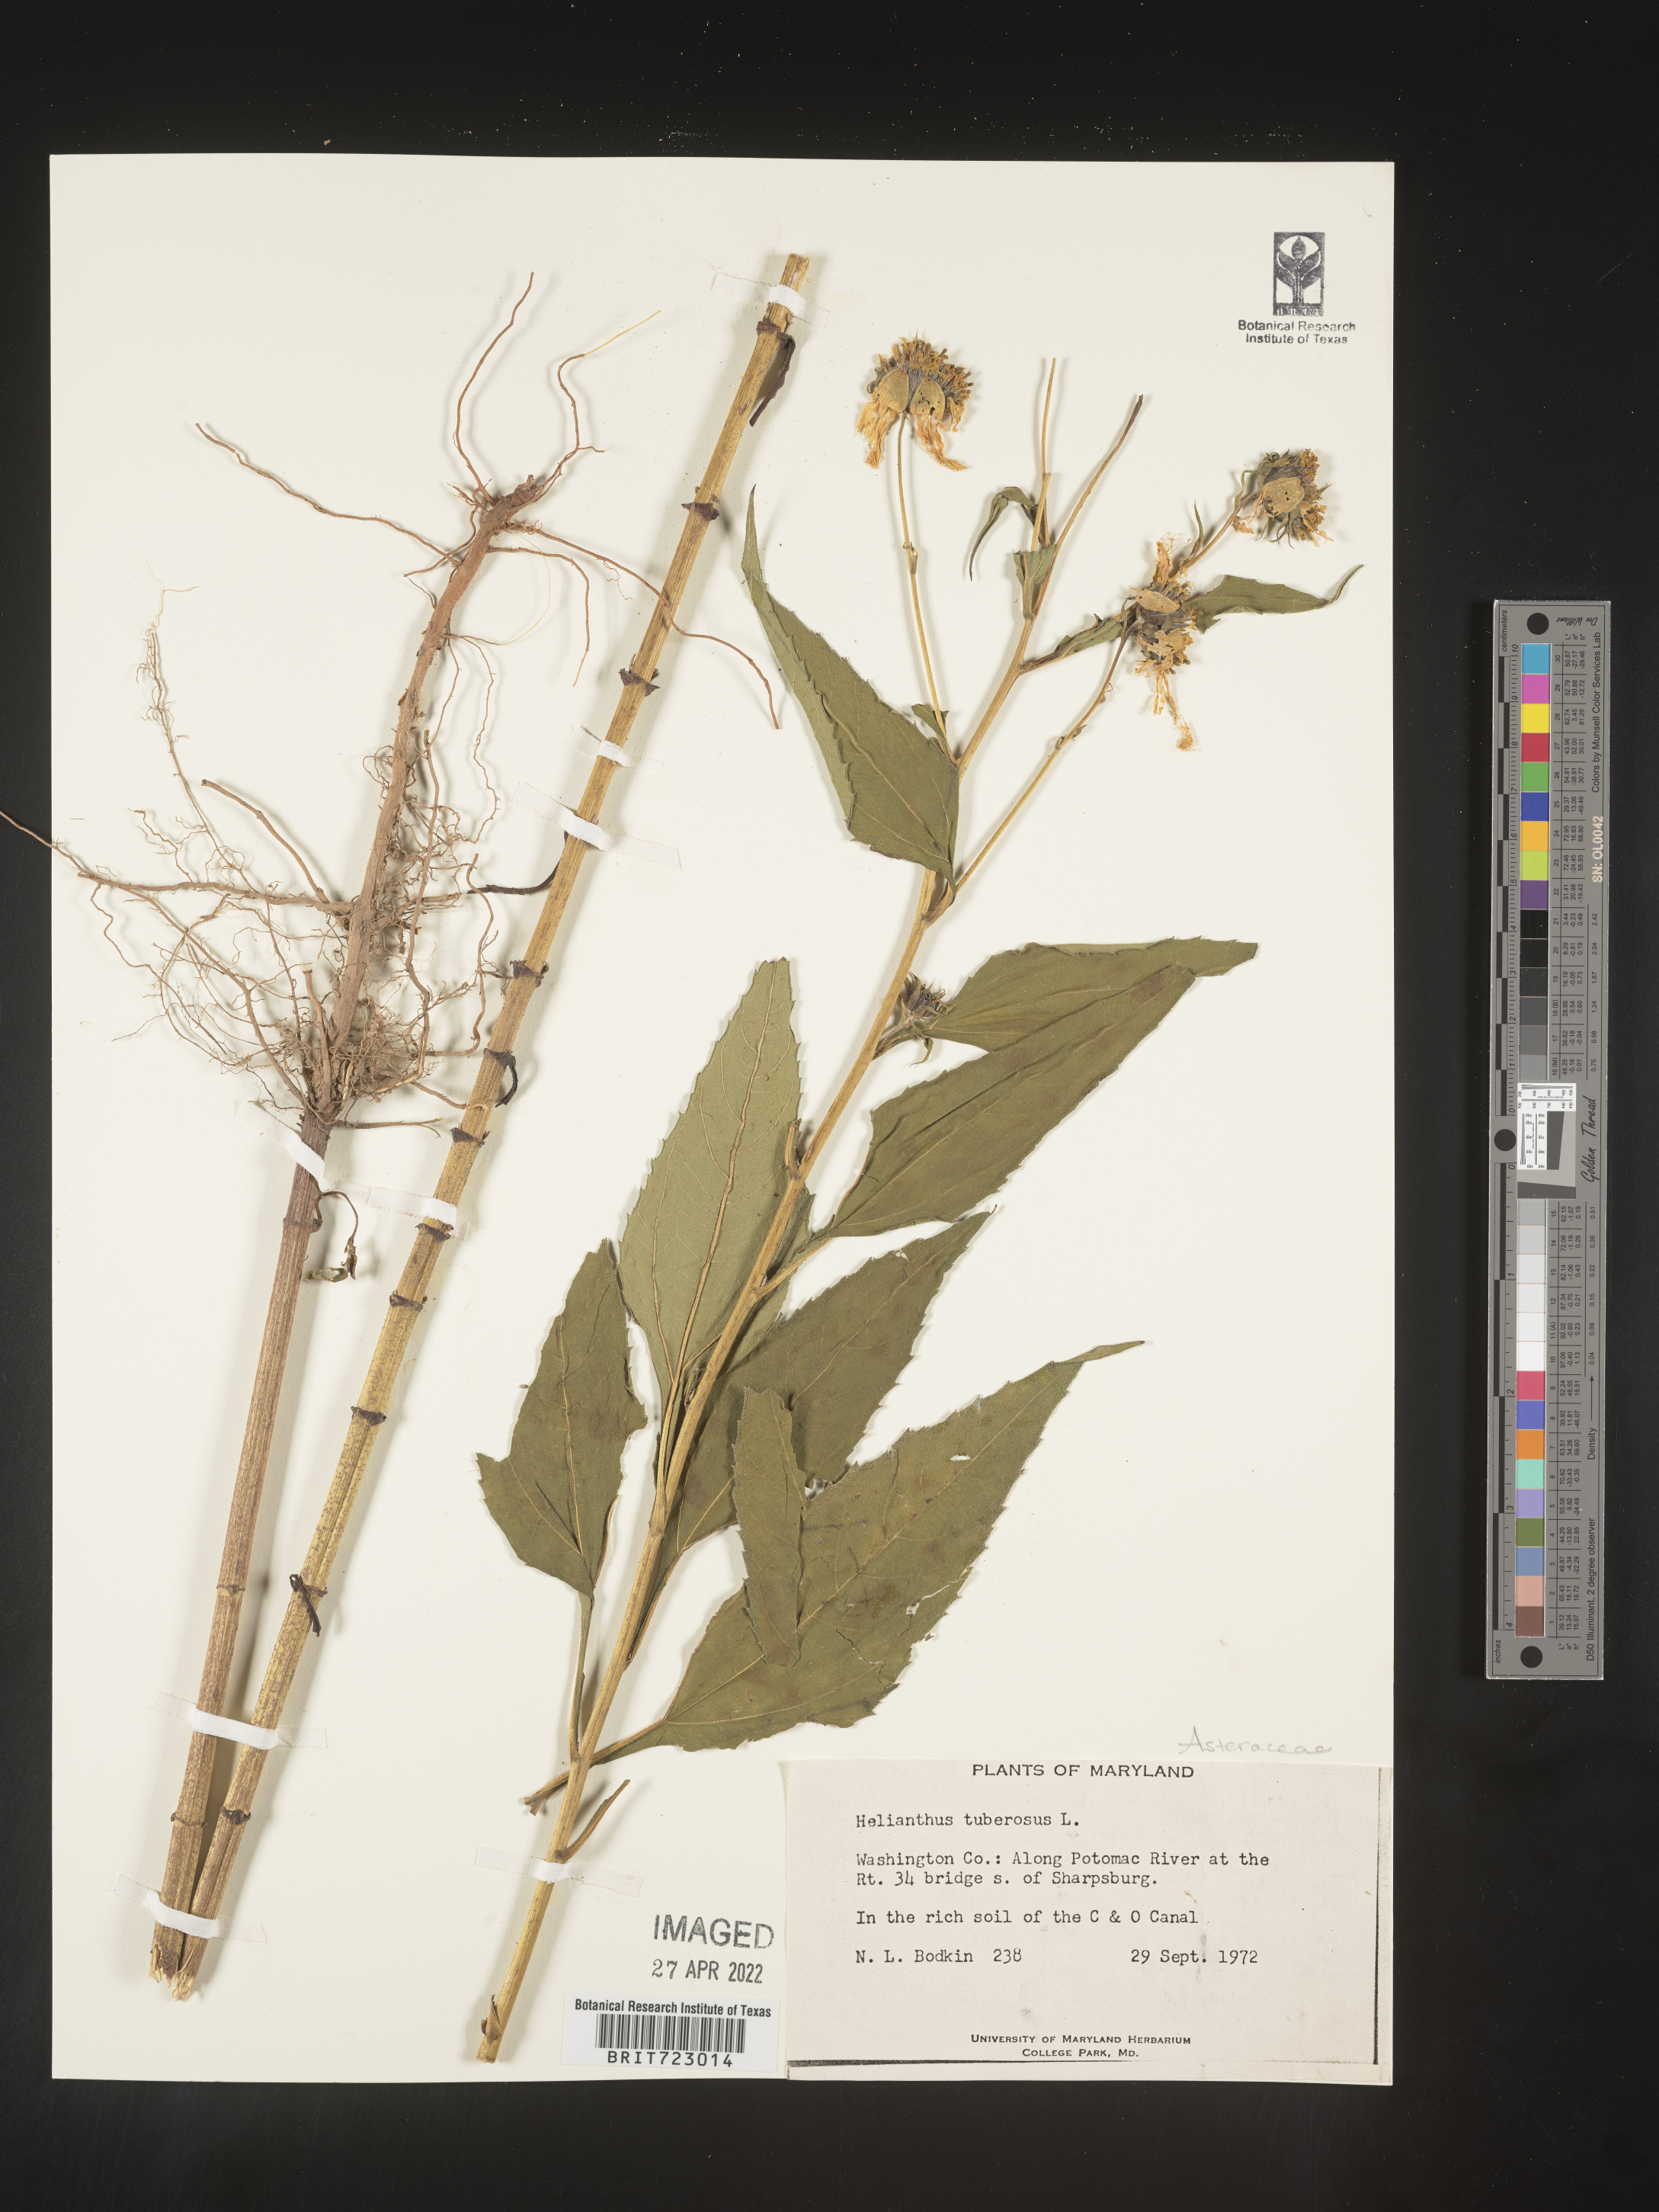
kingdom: Plantae
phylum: Tracheophyta
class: Magnoliopsida
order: Asterales
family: Asteraceae
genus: Helianthus
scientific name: Helianthus tuberosus
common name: Jerusalem artichoke
